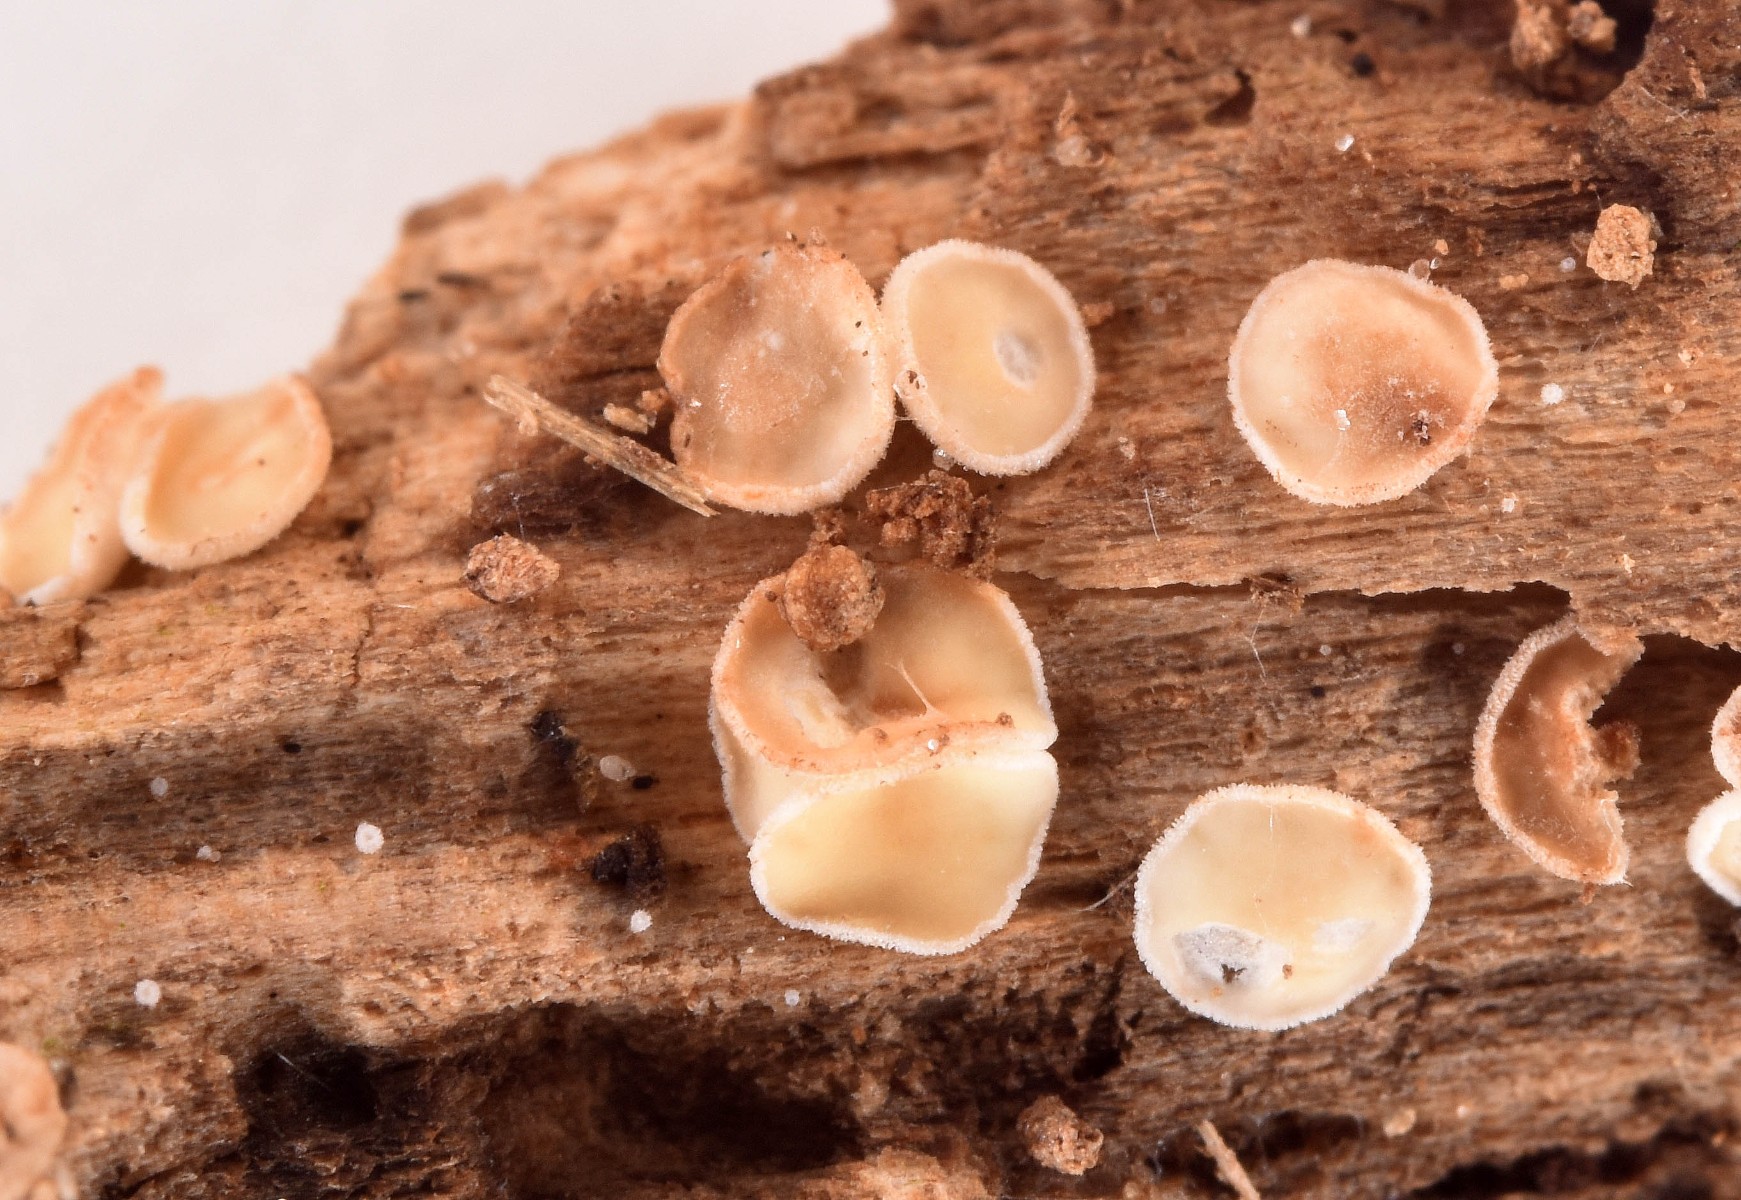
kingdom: Fungi
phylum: Ascomycota
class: Leotiomycetes
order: Helotiales
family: Lachnaceae
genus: Lachnum
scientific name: Lachnum
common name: frynseskive
